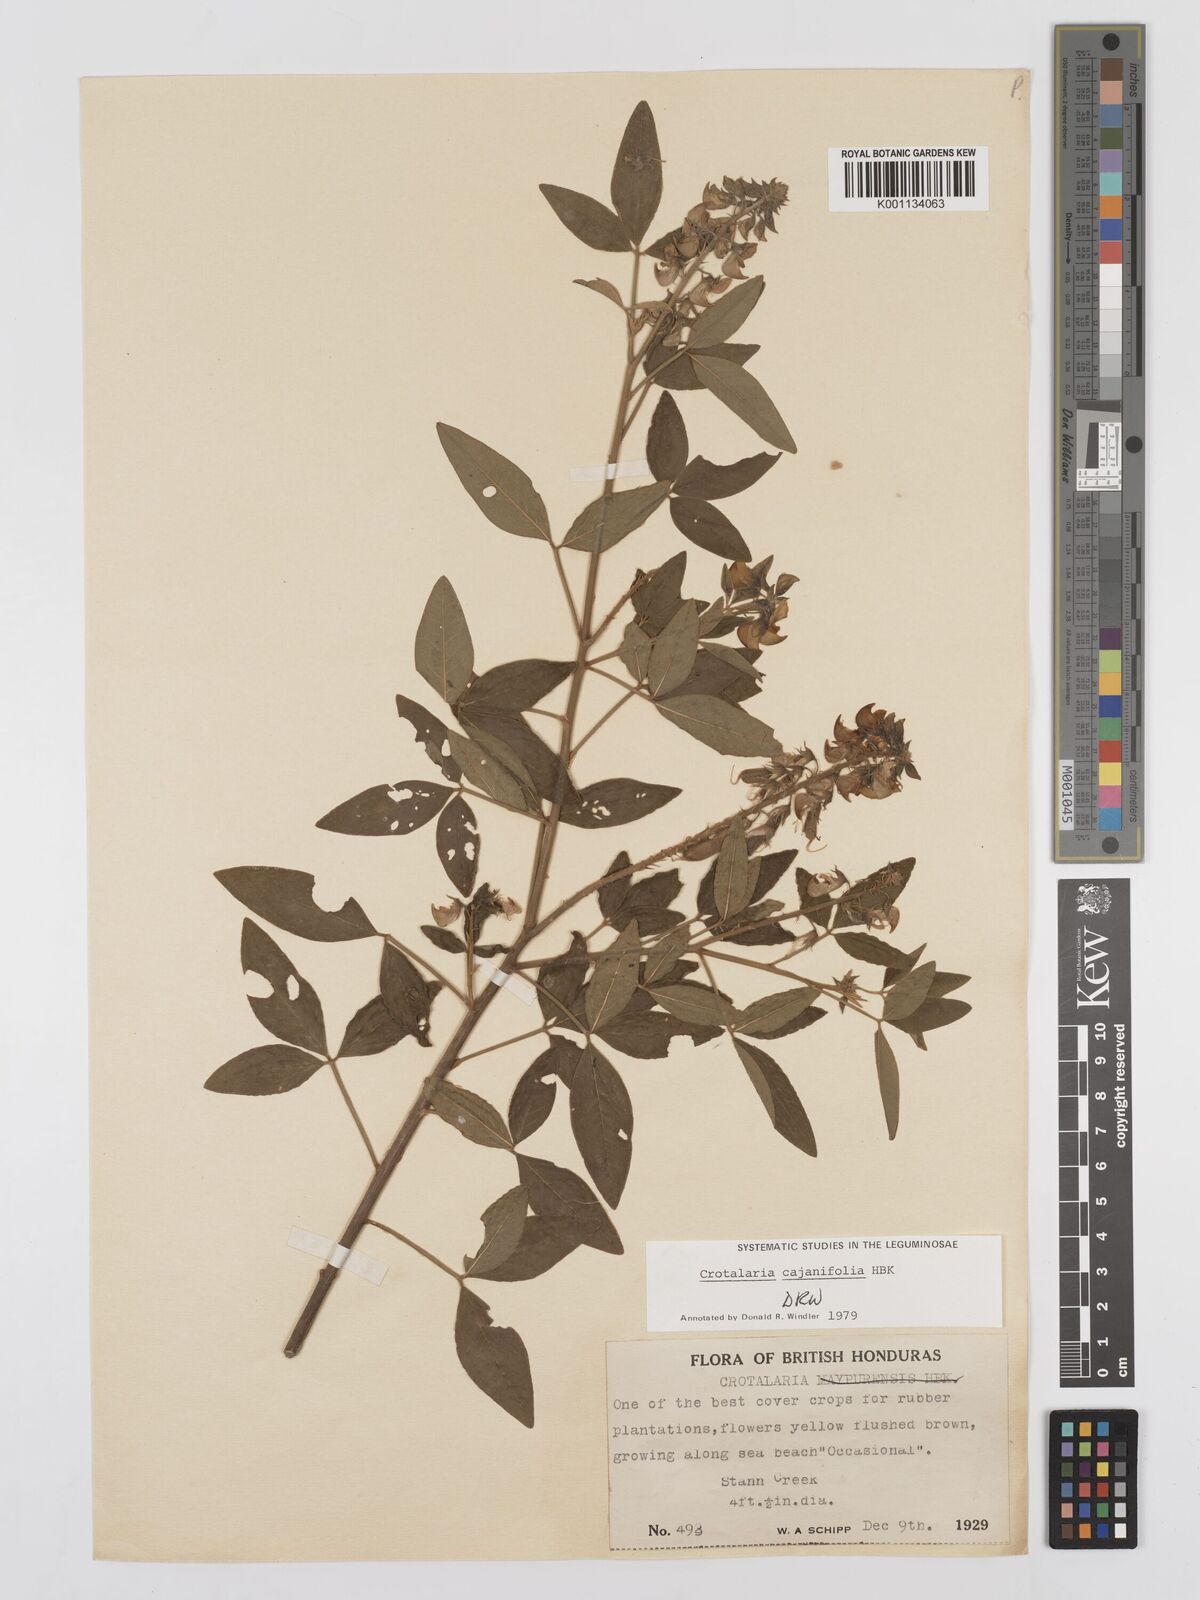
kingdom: Plantae
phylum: Tracheophyta
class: Magnoliopsida
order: Fabales
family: Fabaceae
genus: Crotalaria
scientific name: Crotalaria cajanifolia
